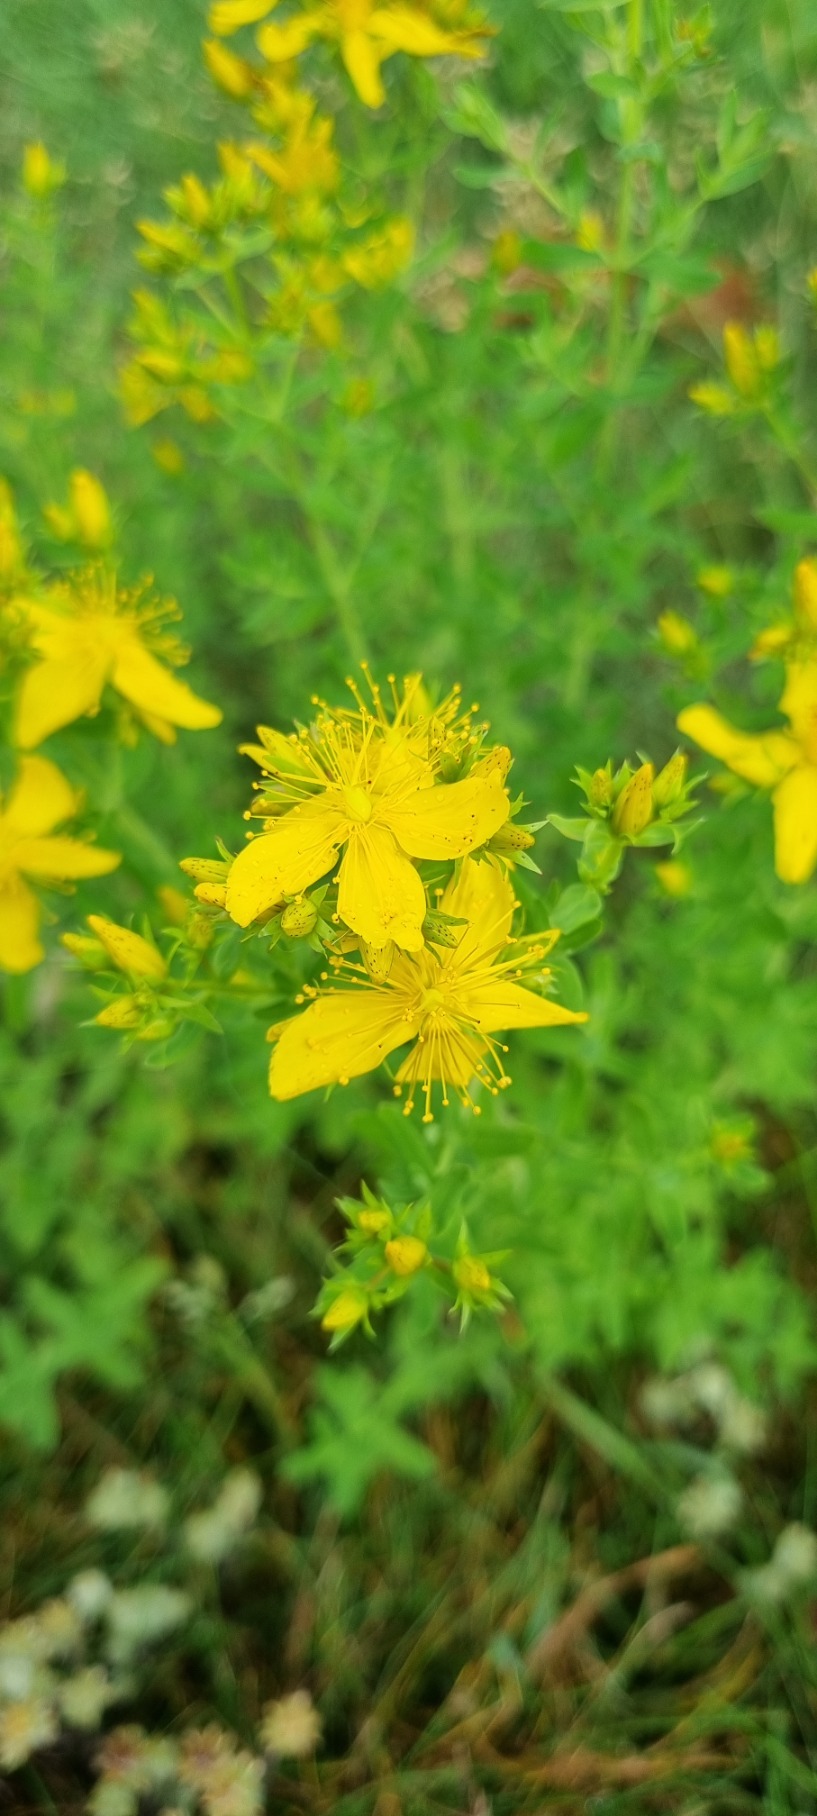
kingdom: Plantae
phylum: Tracheophyta
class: Magnoliopsida
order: Malpighiales
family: Hypericaceae
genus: Hypericum
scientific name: Hypericum perforatum
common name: Prikbladet perikon
